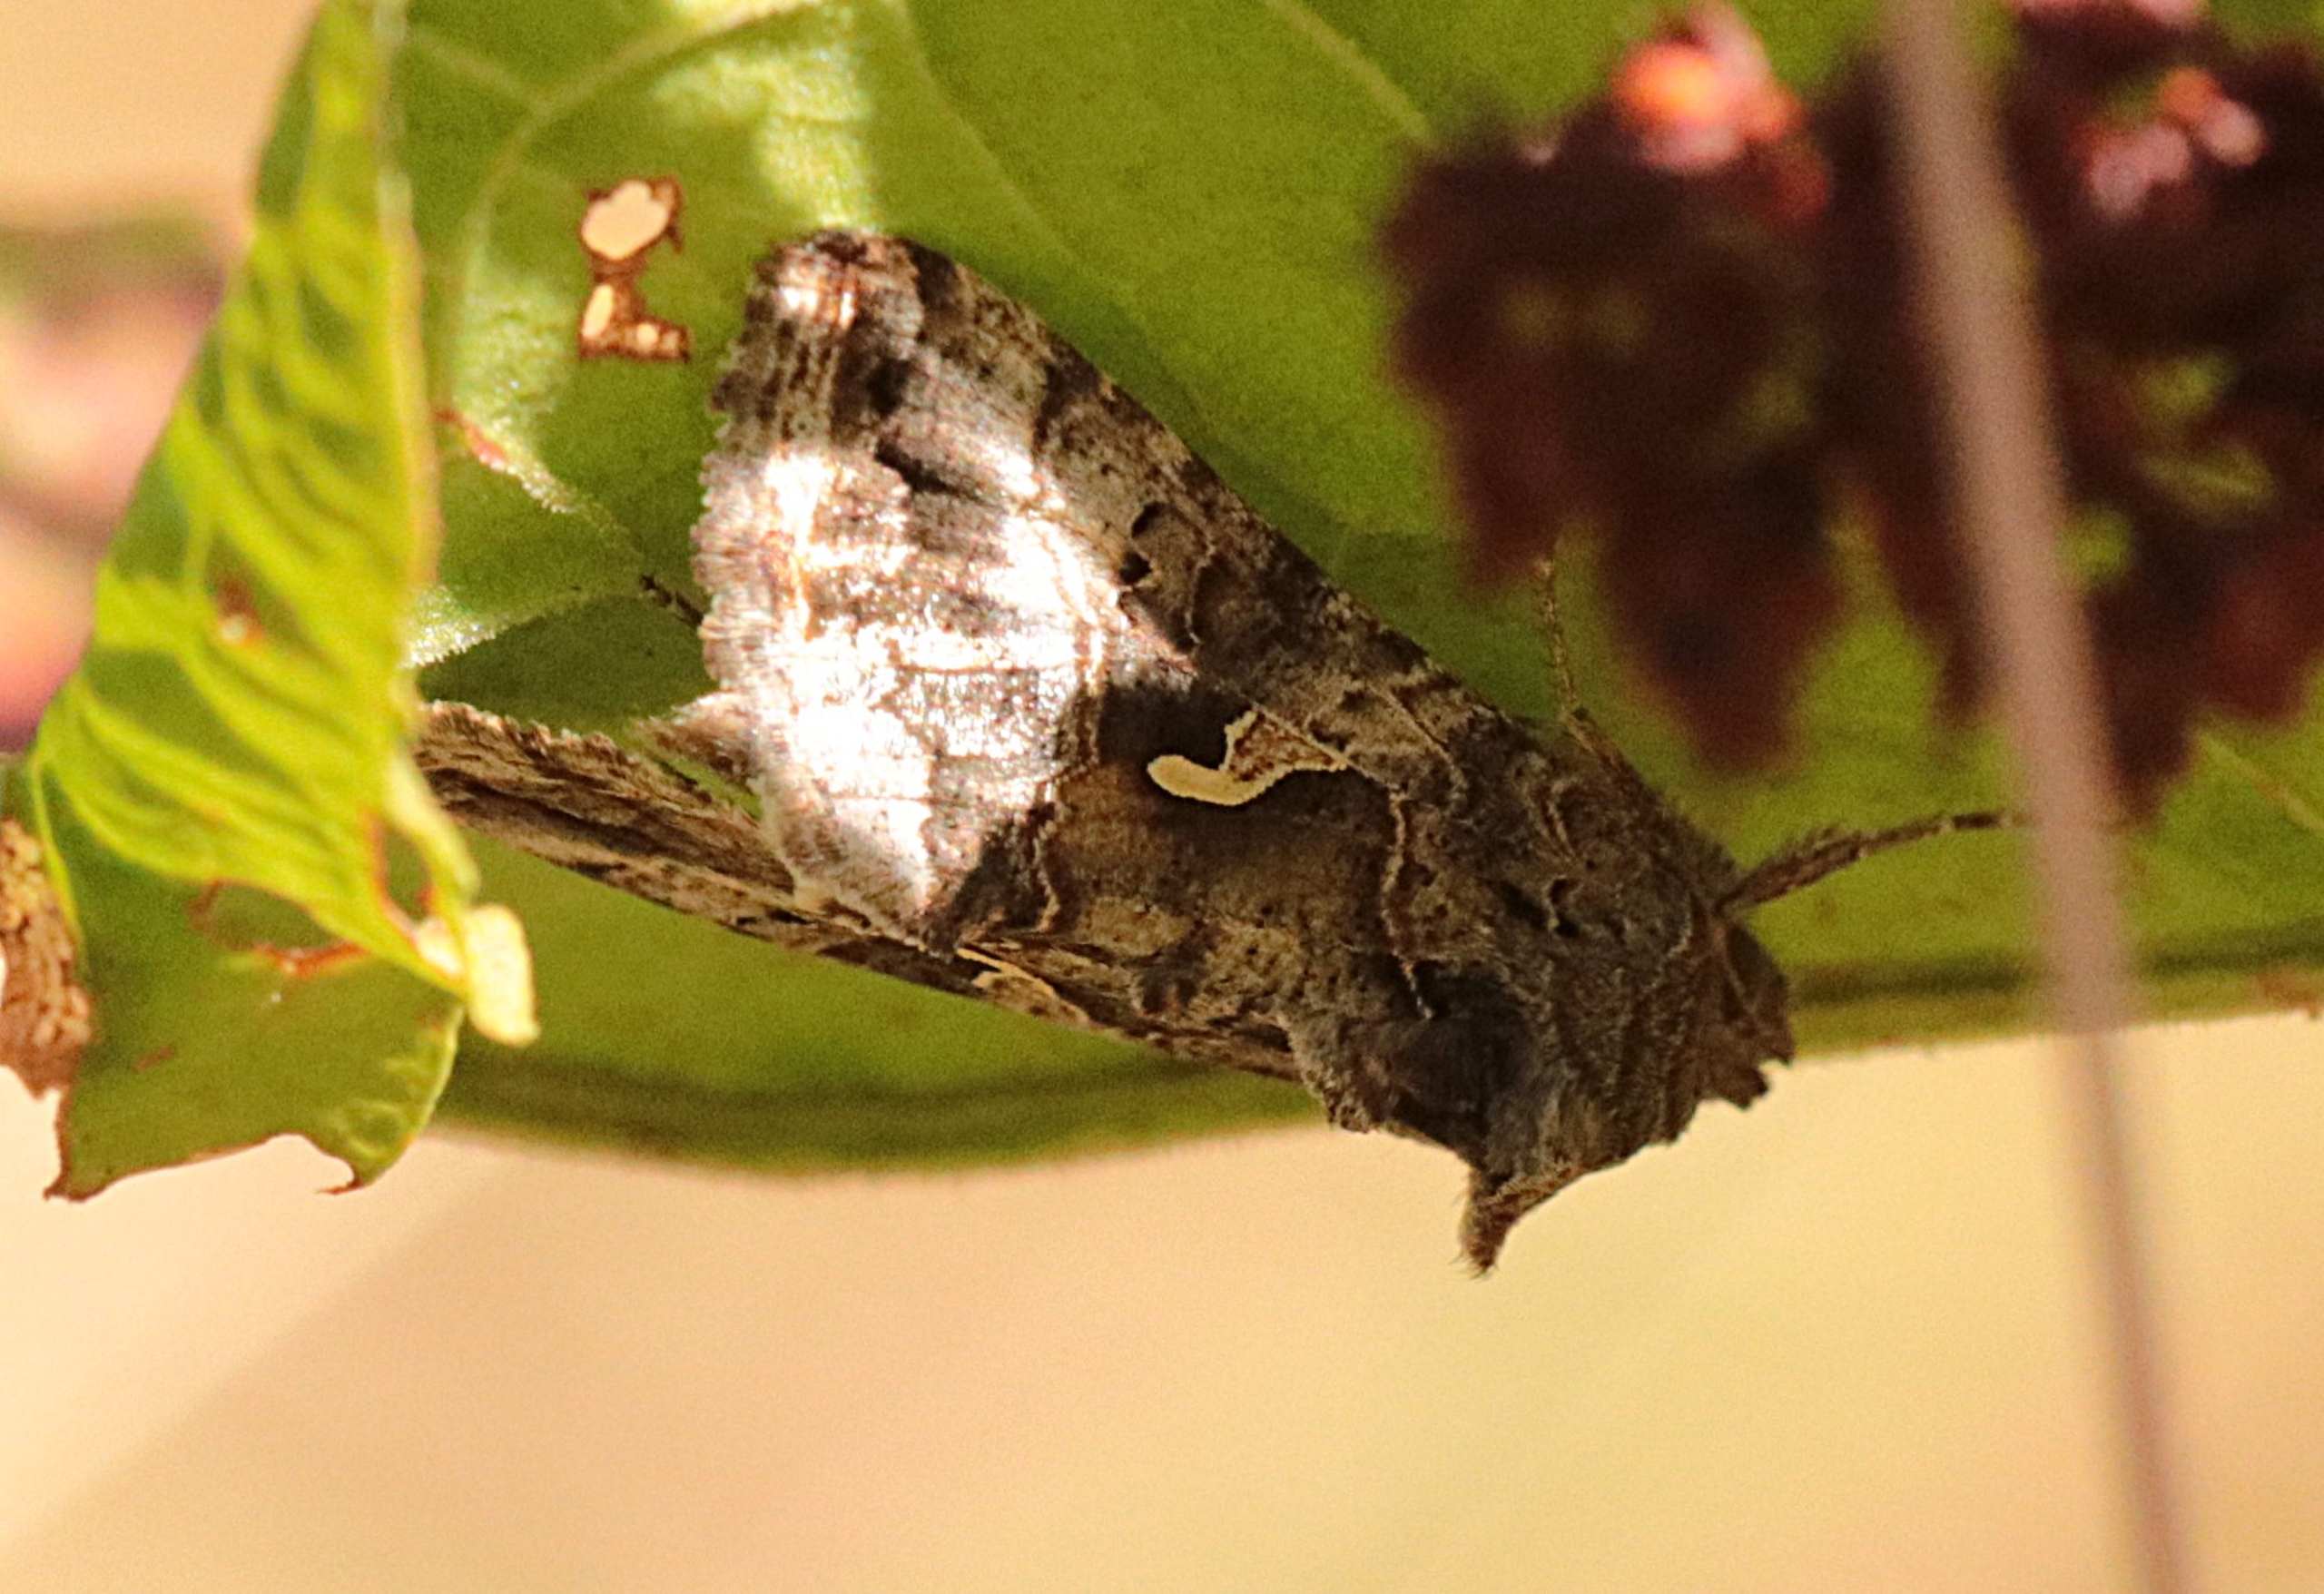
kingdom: Animalia
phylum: Arthropoda
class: Insecta
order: Lepidoptera
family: Noctuidae
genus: Autographa
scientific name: Autographa gamma
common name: Gammaugle
